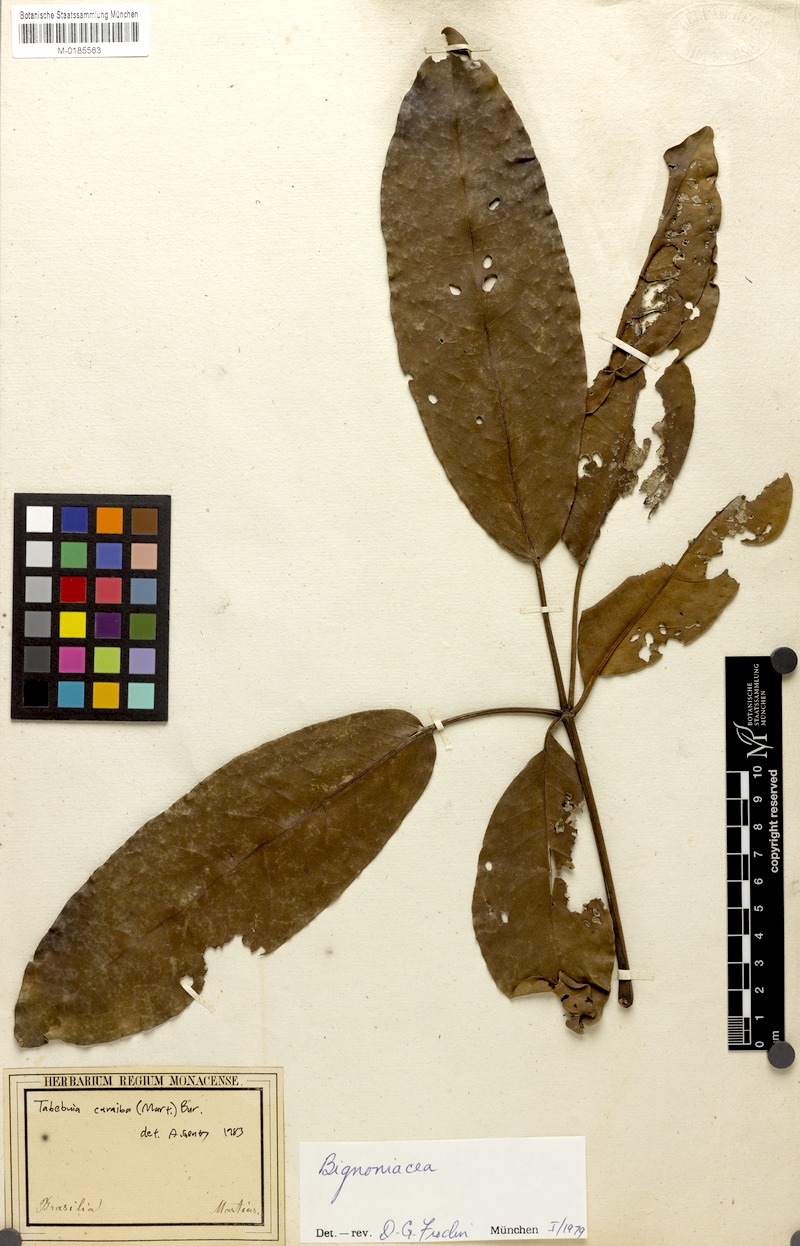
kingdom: Plantae
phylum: Tracheophyta
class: Magnoliopsida
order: Lamiales
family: Bignoniaceae
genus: Tabebuia
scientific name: Tabebuia aurea
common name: Caribbean trumpet-tree
